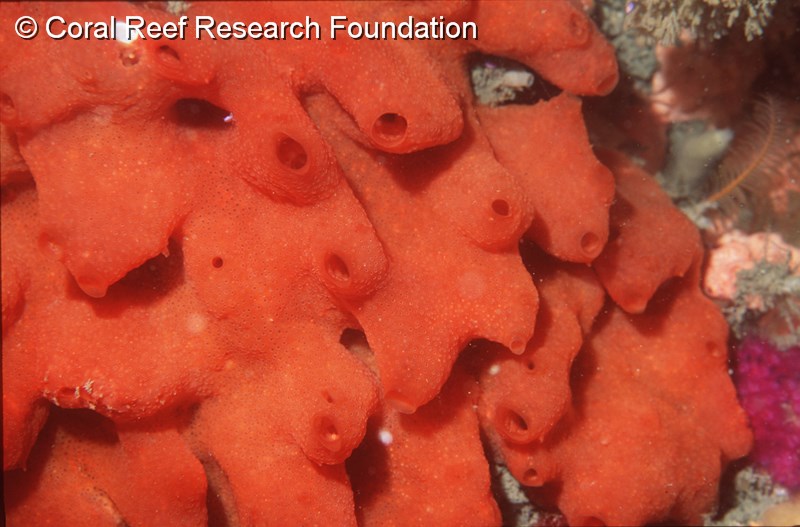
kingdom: Animalia
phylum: Chordata
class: Ascidiacea
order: Aplousobranchia
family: Didemnidae
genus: Atriolum
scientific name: Atriolum
